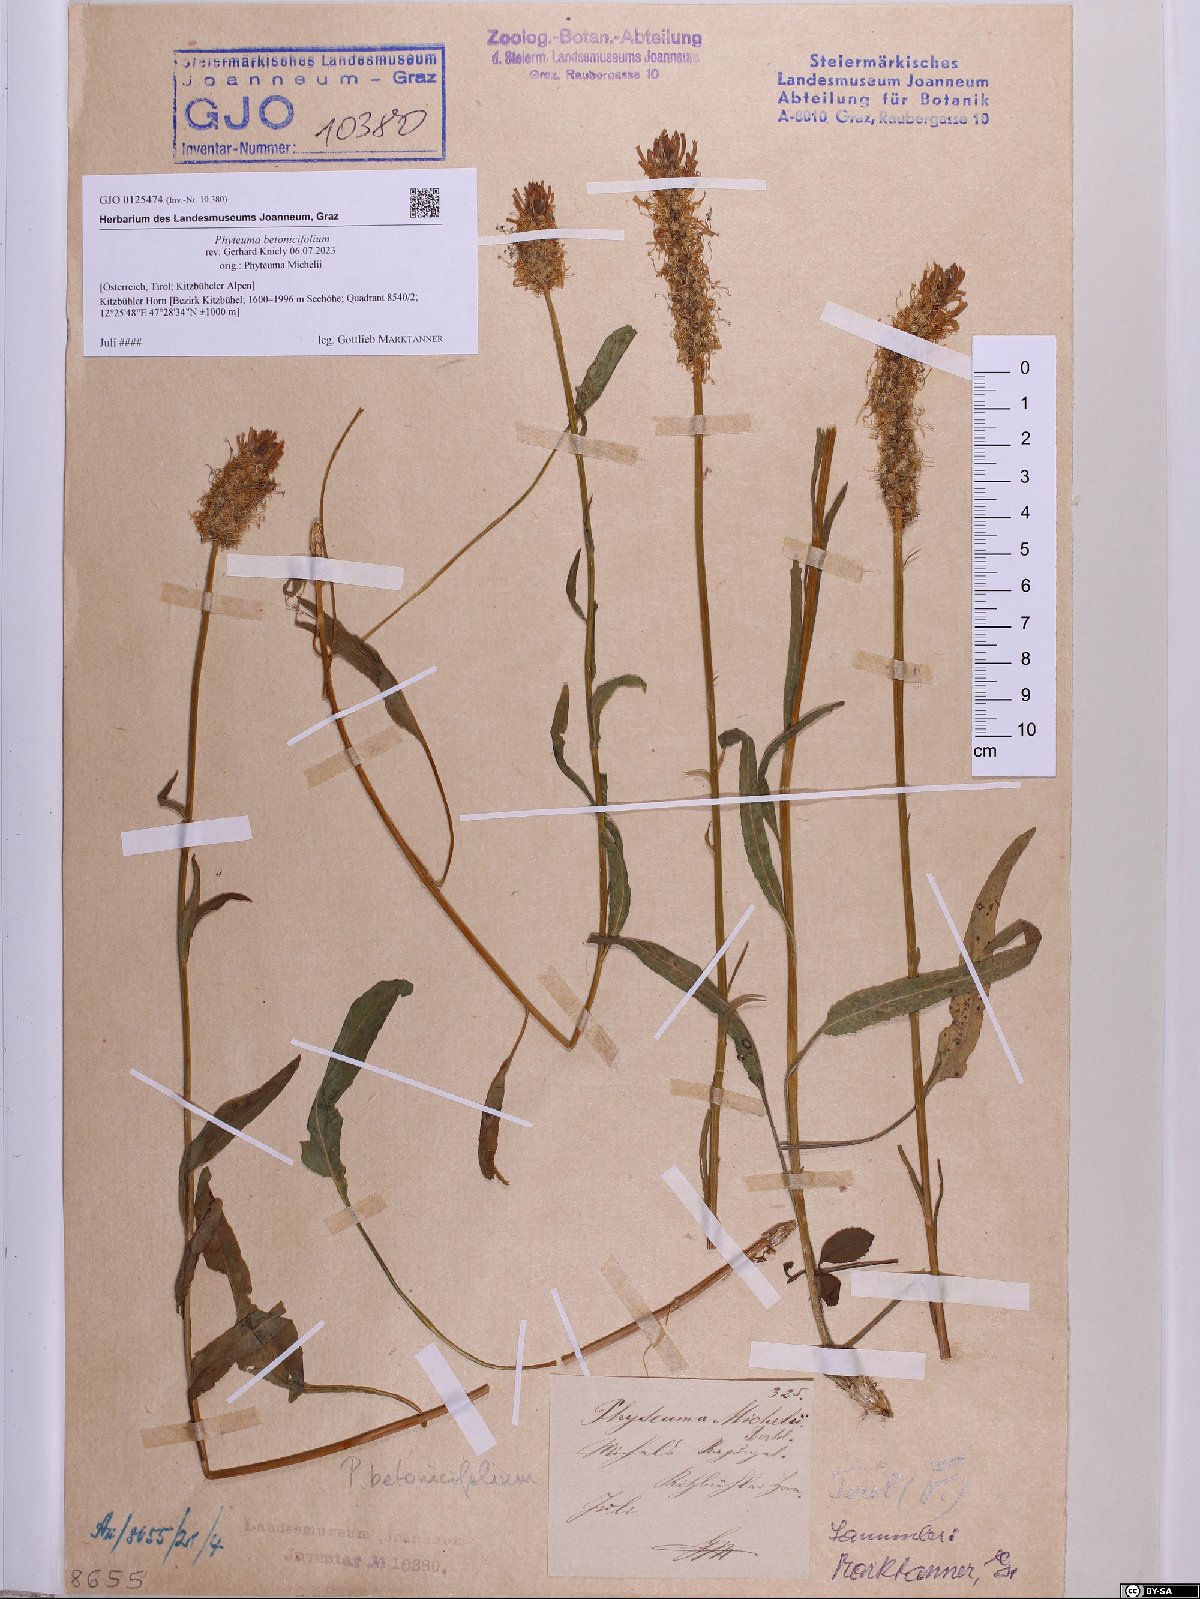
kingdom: Plantae
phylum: Tracheophyta
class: Magnoliopsida
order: Asterales
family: Campanulaceae
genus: Phyteuma
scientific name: Phyteuma betonicifolium
